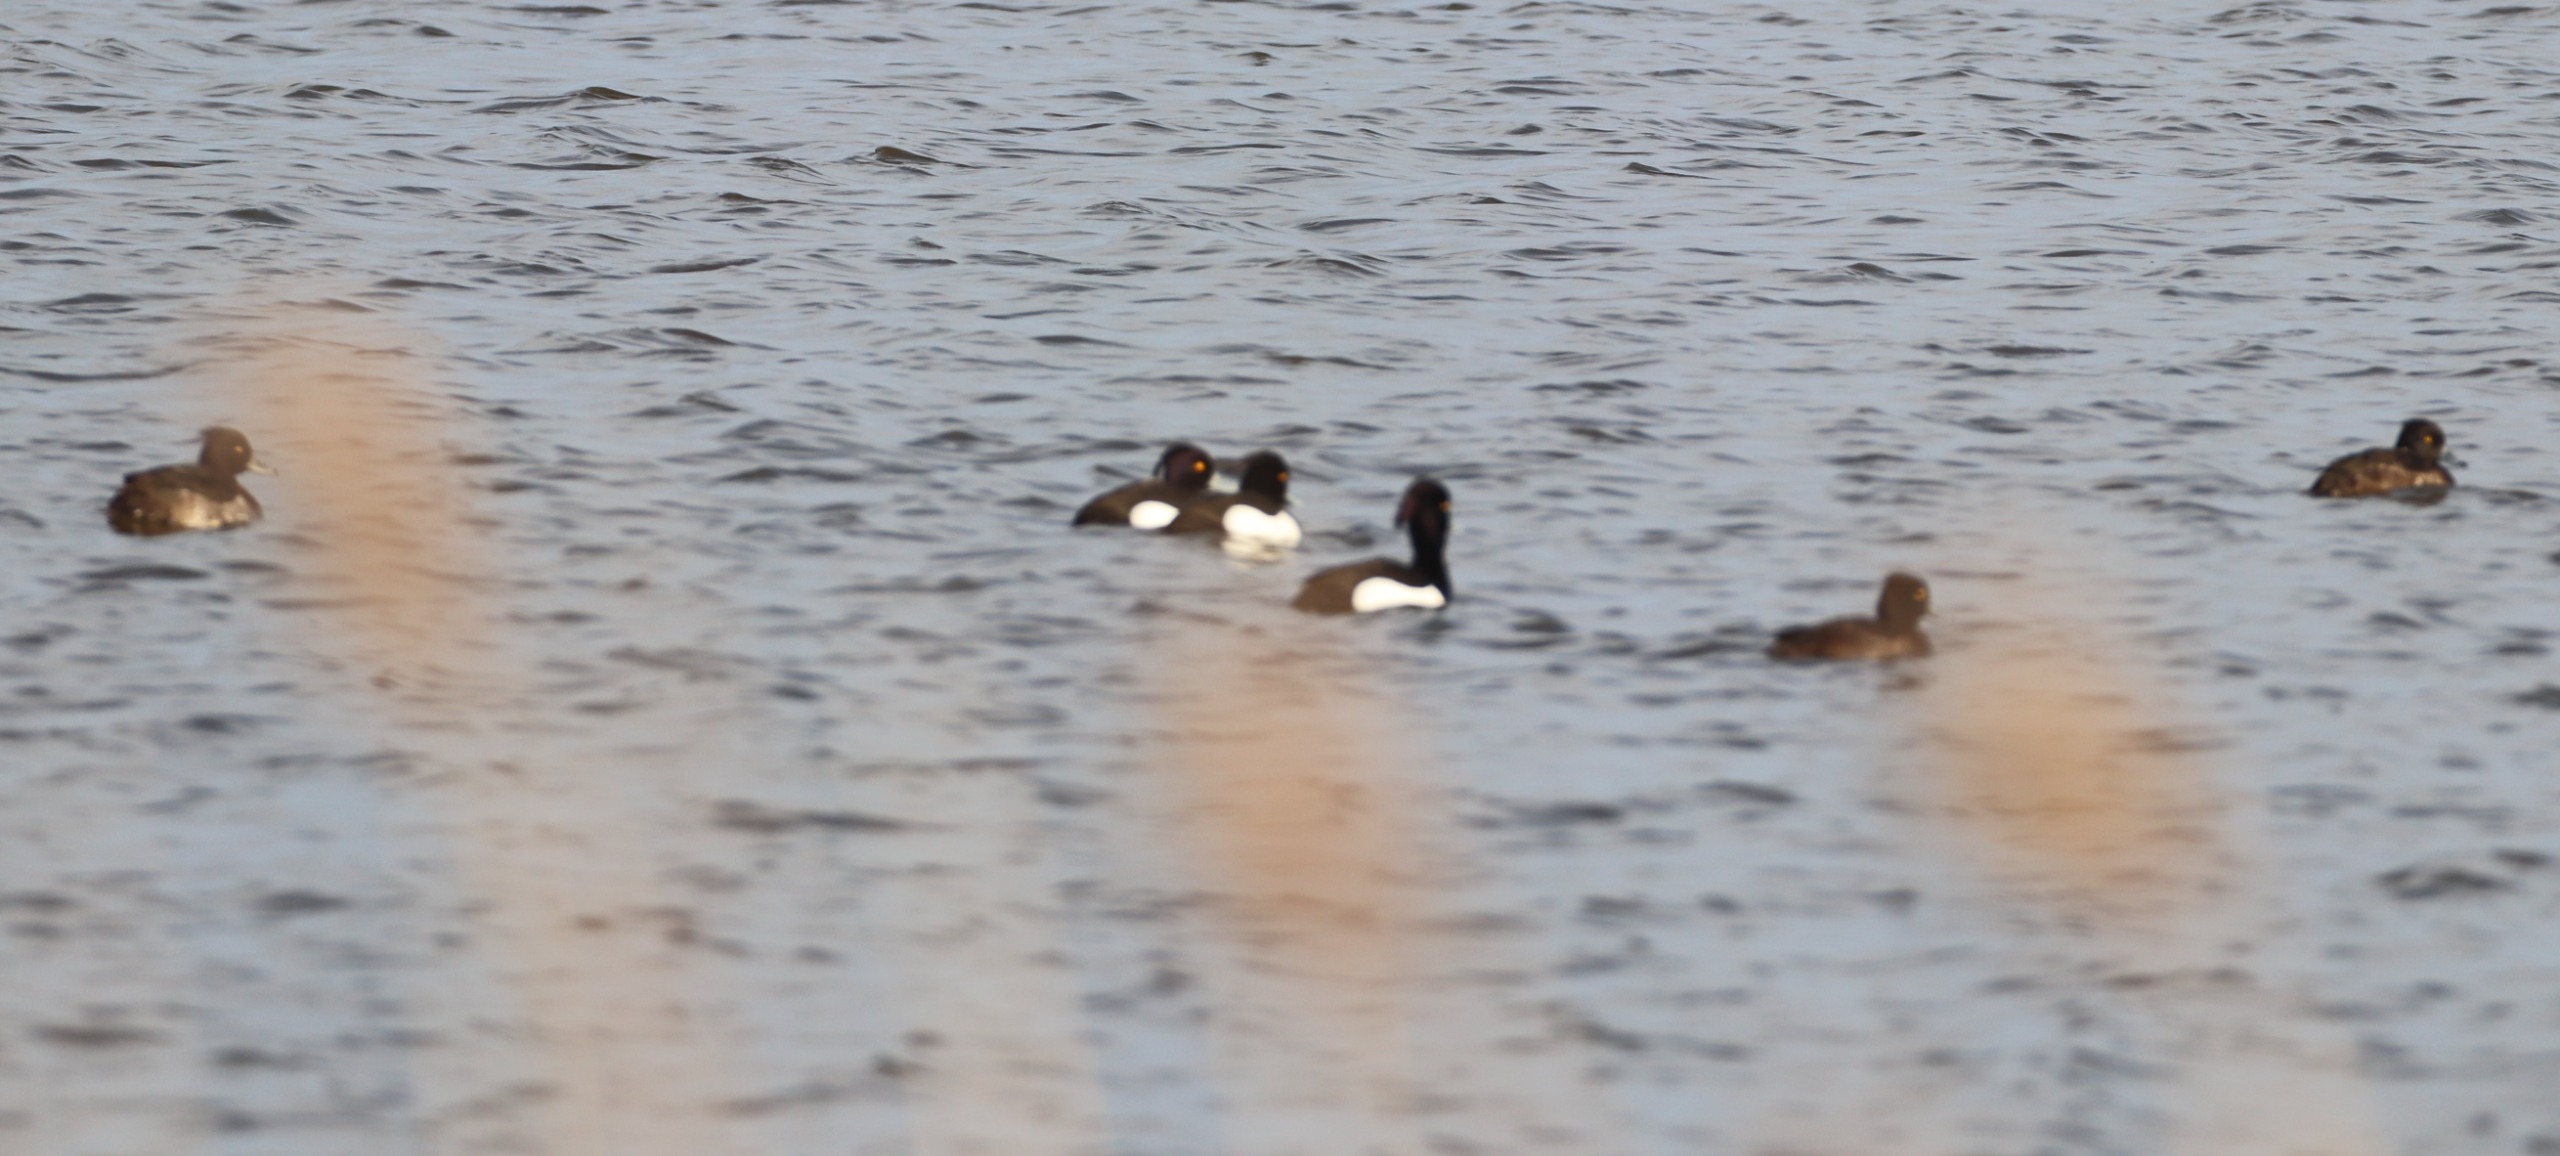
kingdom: Animalia
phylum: Chordata
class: Aves
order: Anseriformes
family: Anatidae
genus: Aythya
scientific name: Aythya fuligula
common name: Troldand
